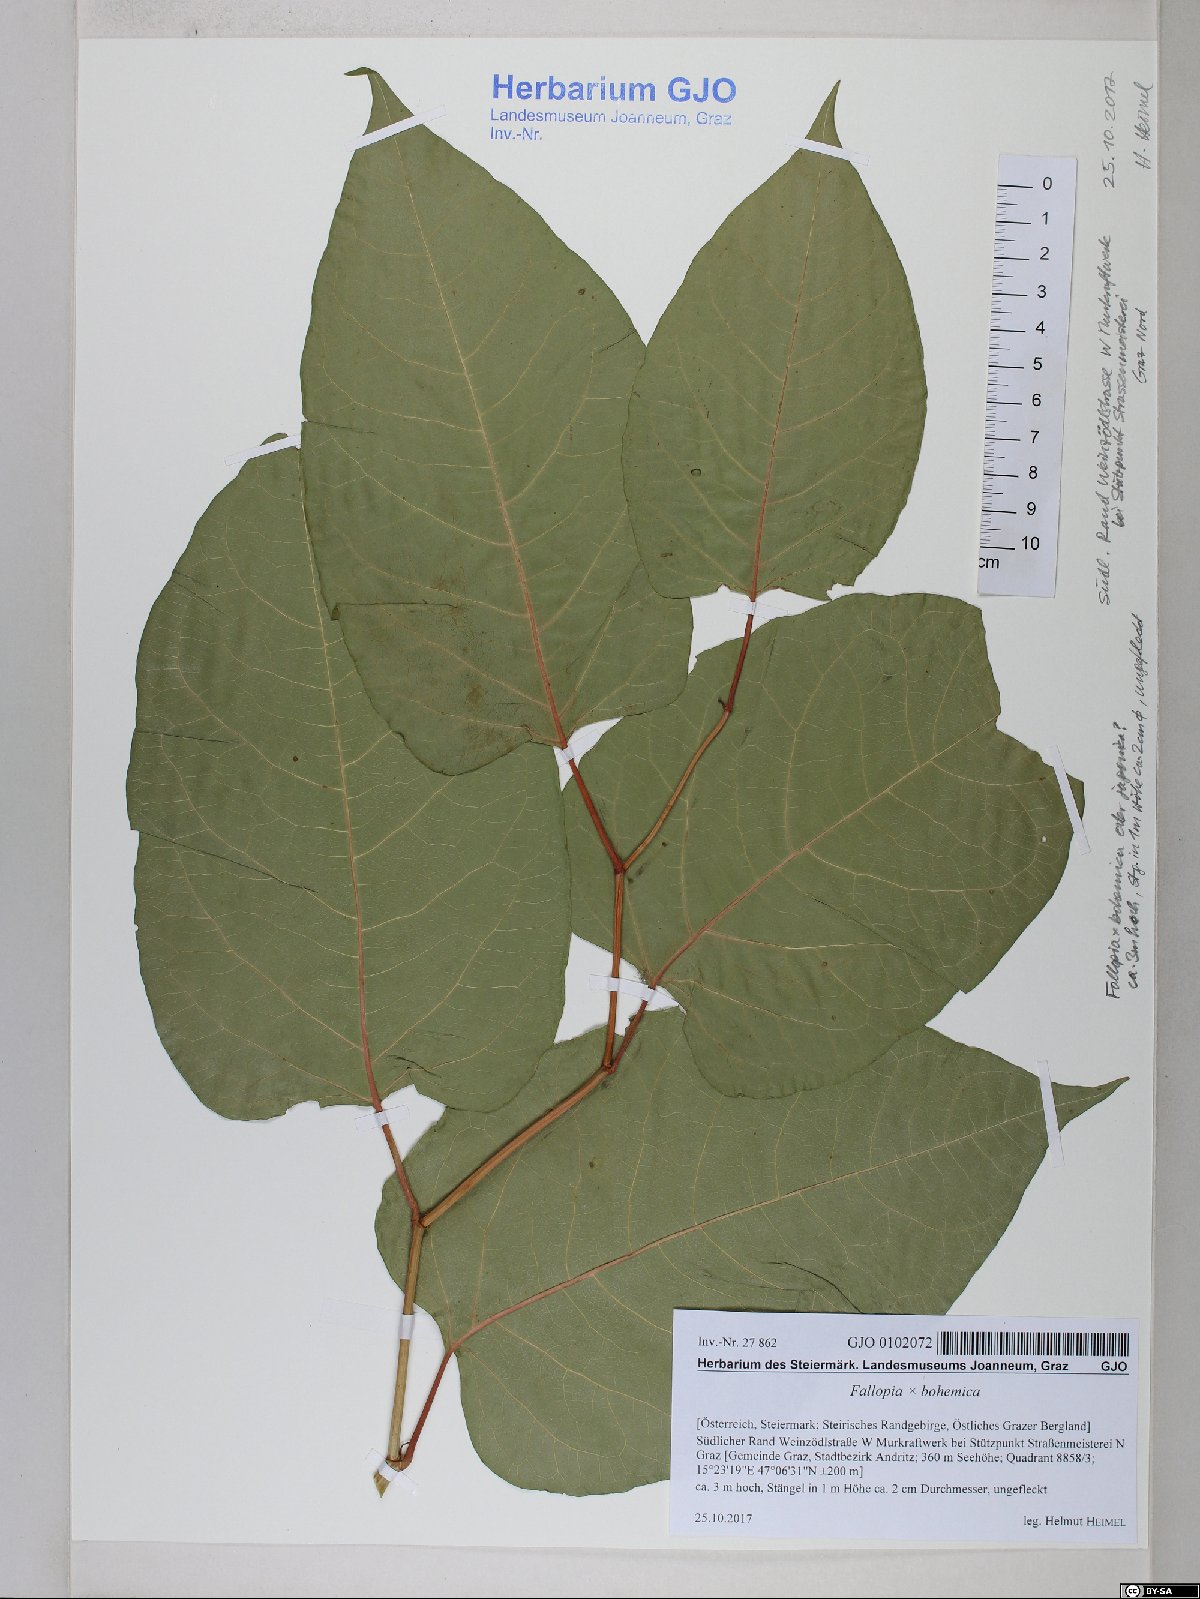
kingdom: Plantae
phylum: Tracheophyta
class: Magnoliopsida
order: Caryophyllales
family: Polygonaceae
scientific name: Polygonaceae
